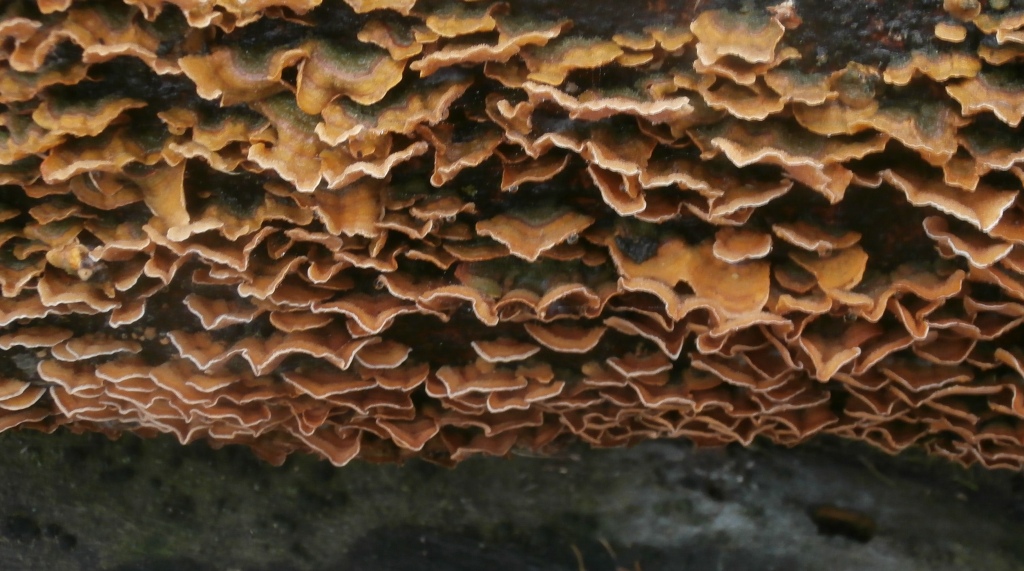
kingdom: Fungi
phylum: Basidiomycota
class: Agaricomycetes
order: Russulales
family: Stereaceae
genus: Stereum
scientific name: Stereum hirsutum
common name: håret lædersvamp
